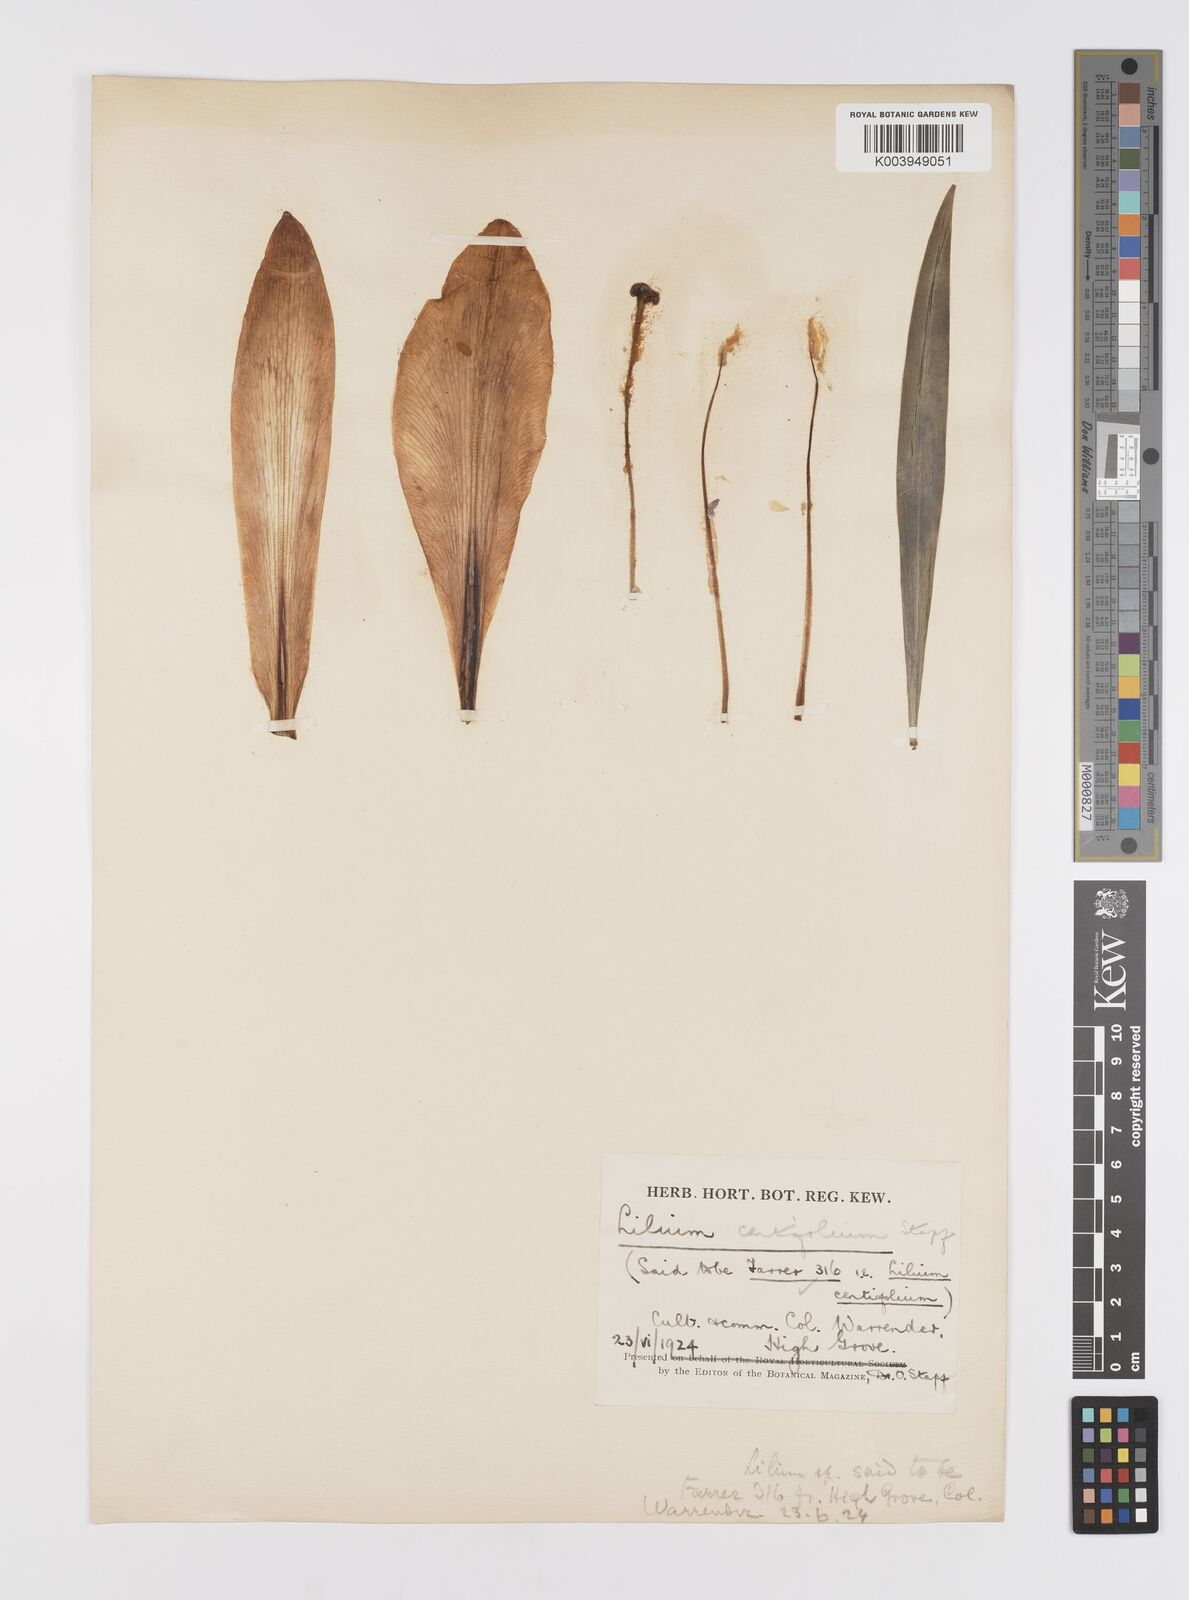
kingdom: Plantae
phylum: Tracheophyta
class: Liliopsida
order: Liliales
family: Liliaceae
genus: Lilium
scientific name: Lilium leucanthum
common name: Chinese white lily
